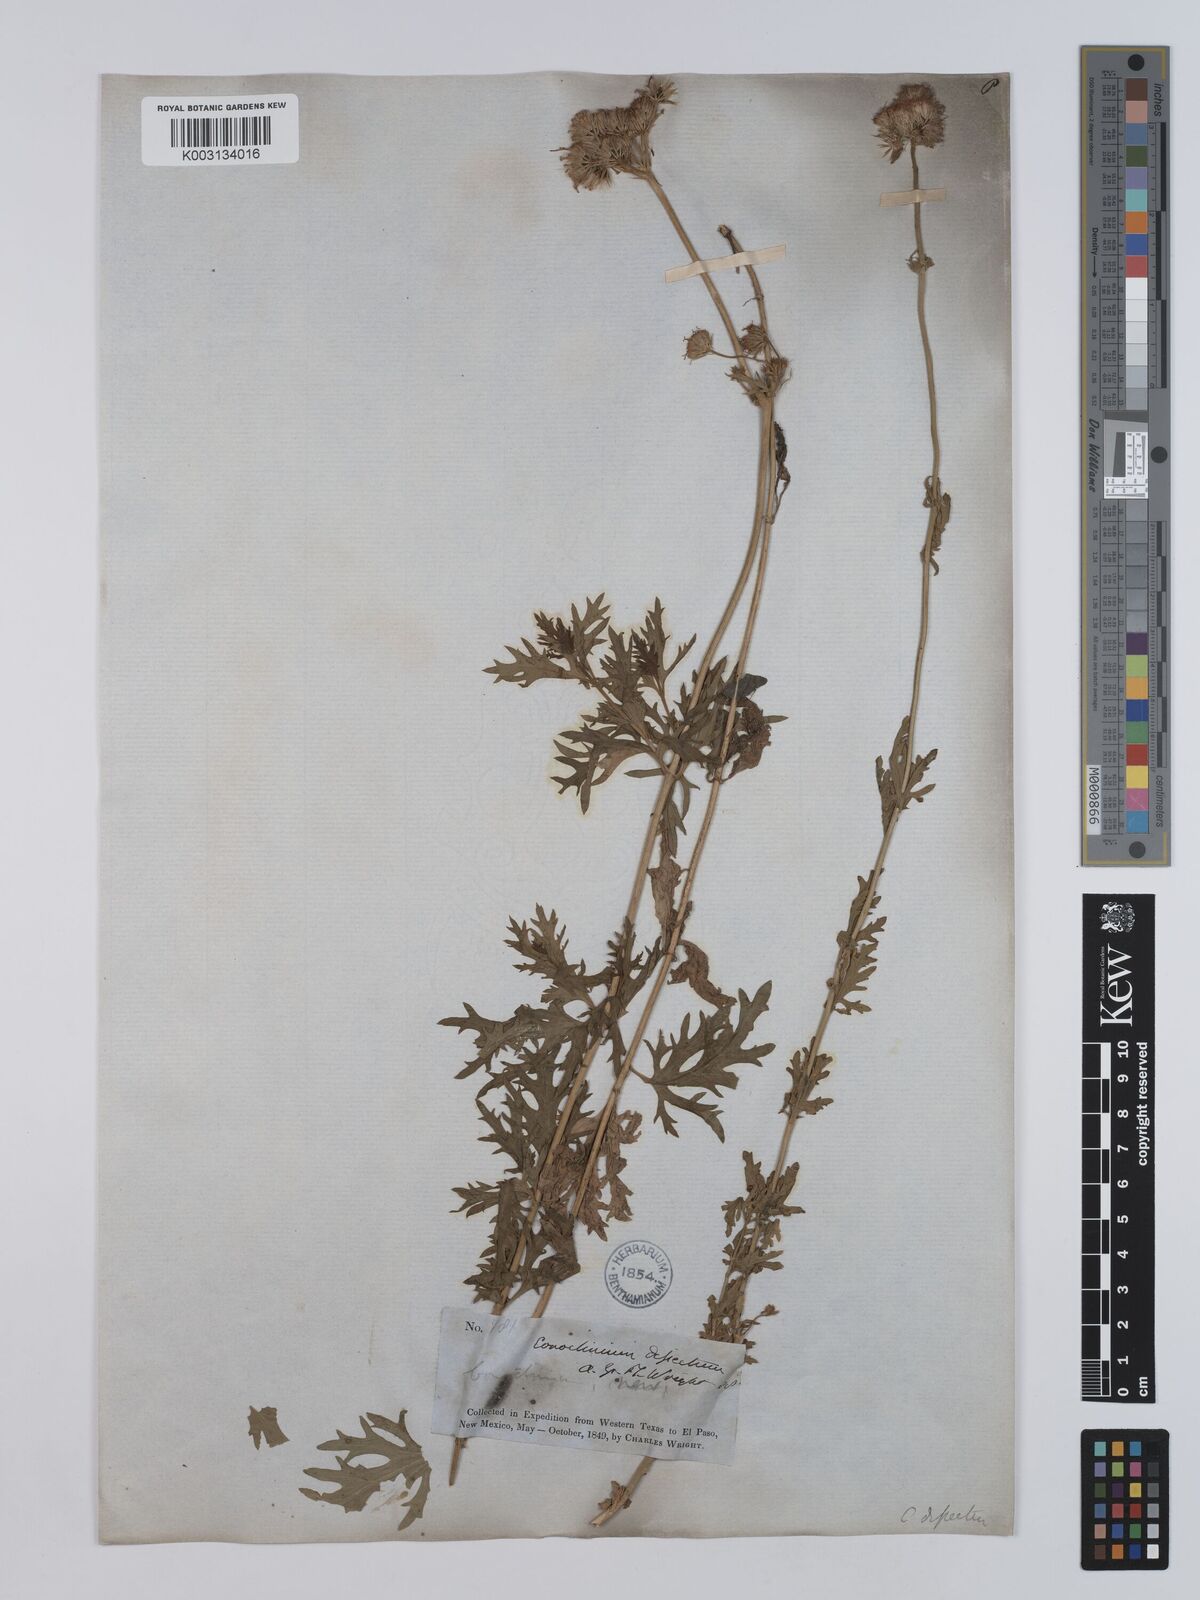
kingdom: Plantae
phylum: Tracheophyta
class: Magnoliopsida
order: Asterales
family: Asteraceae
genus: Conoclinium
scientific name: Conoclinium dissectum
